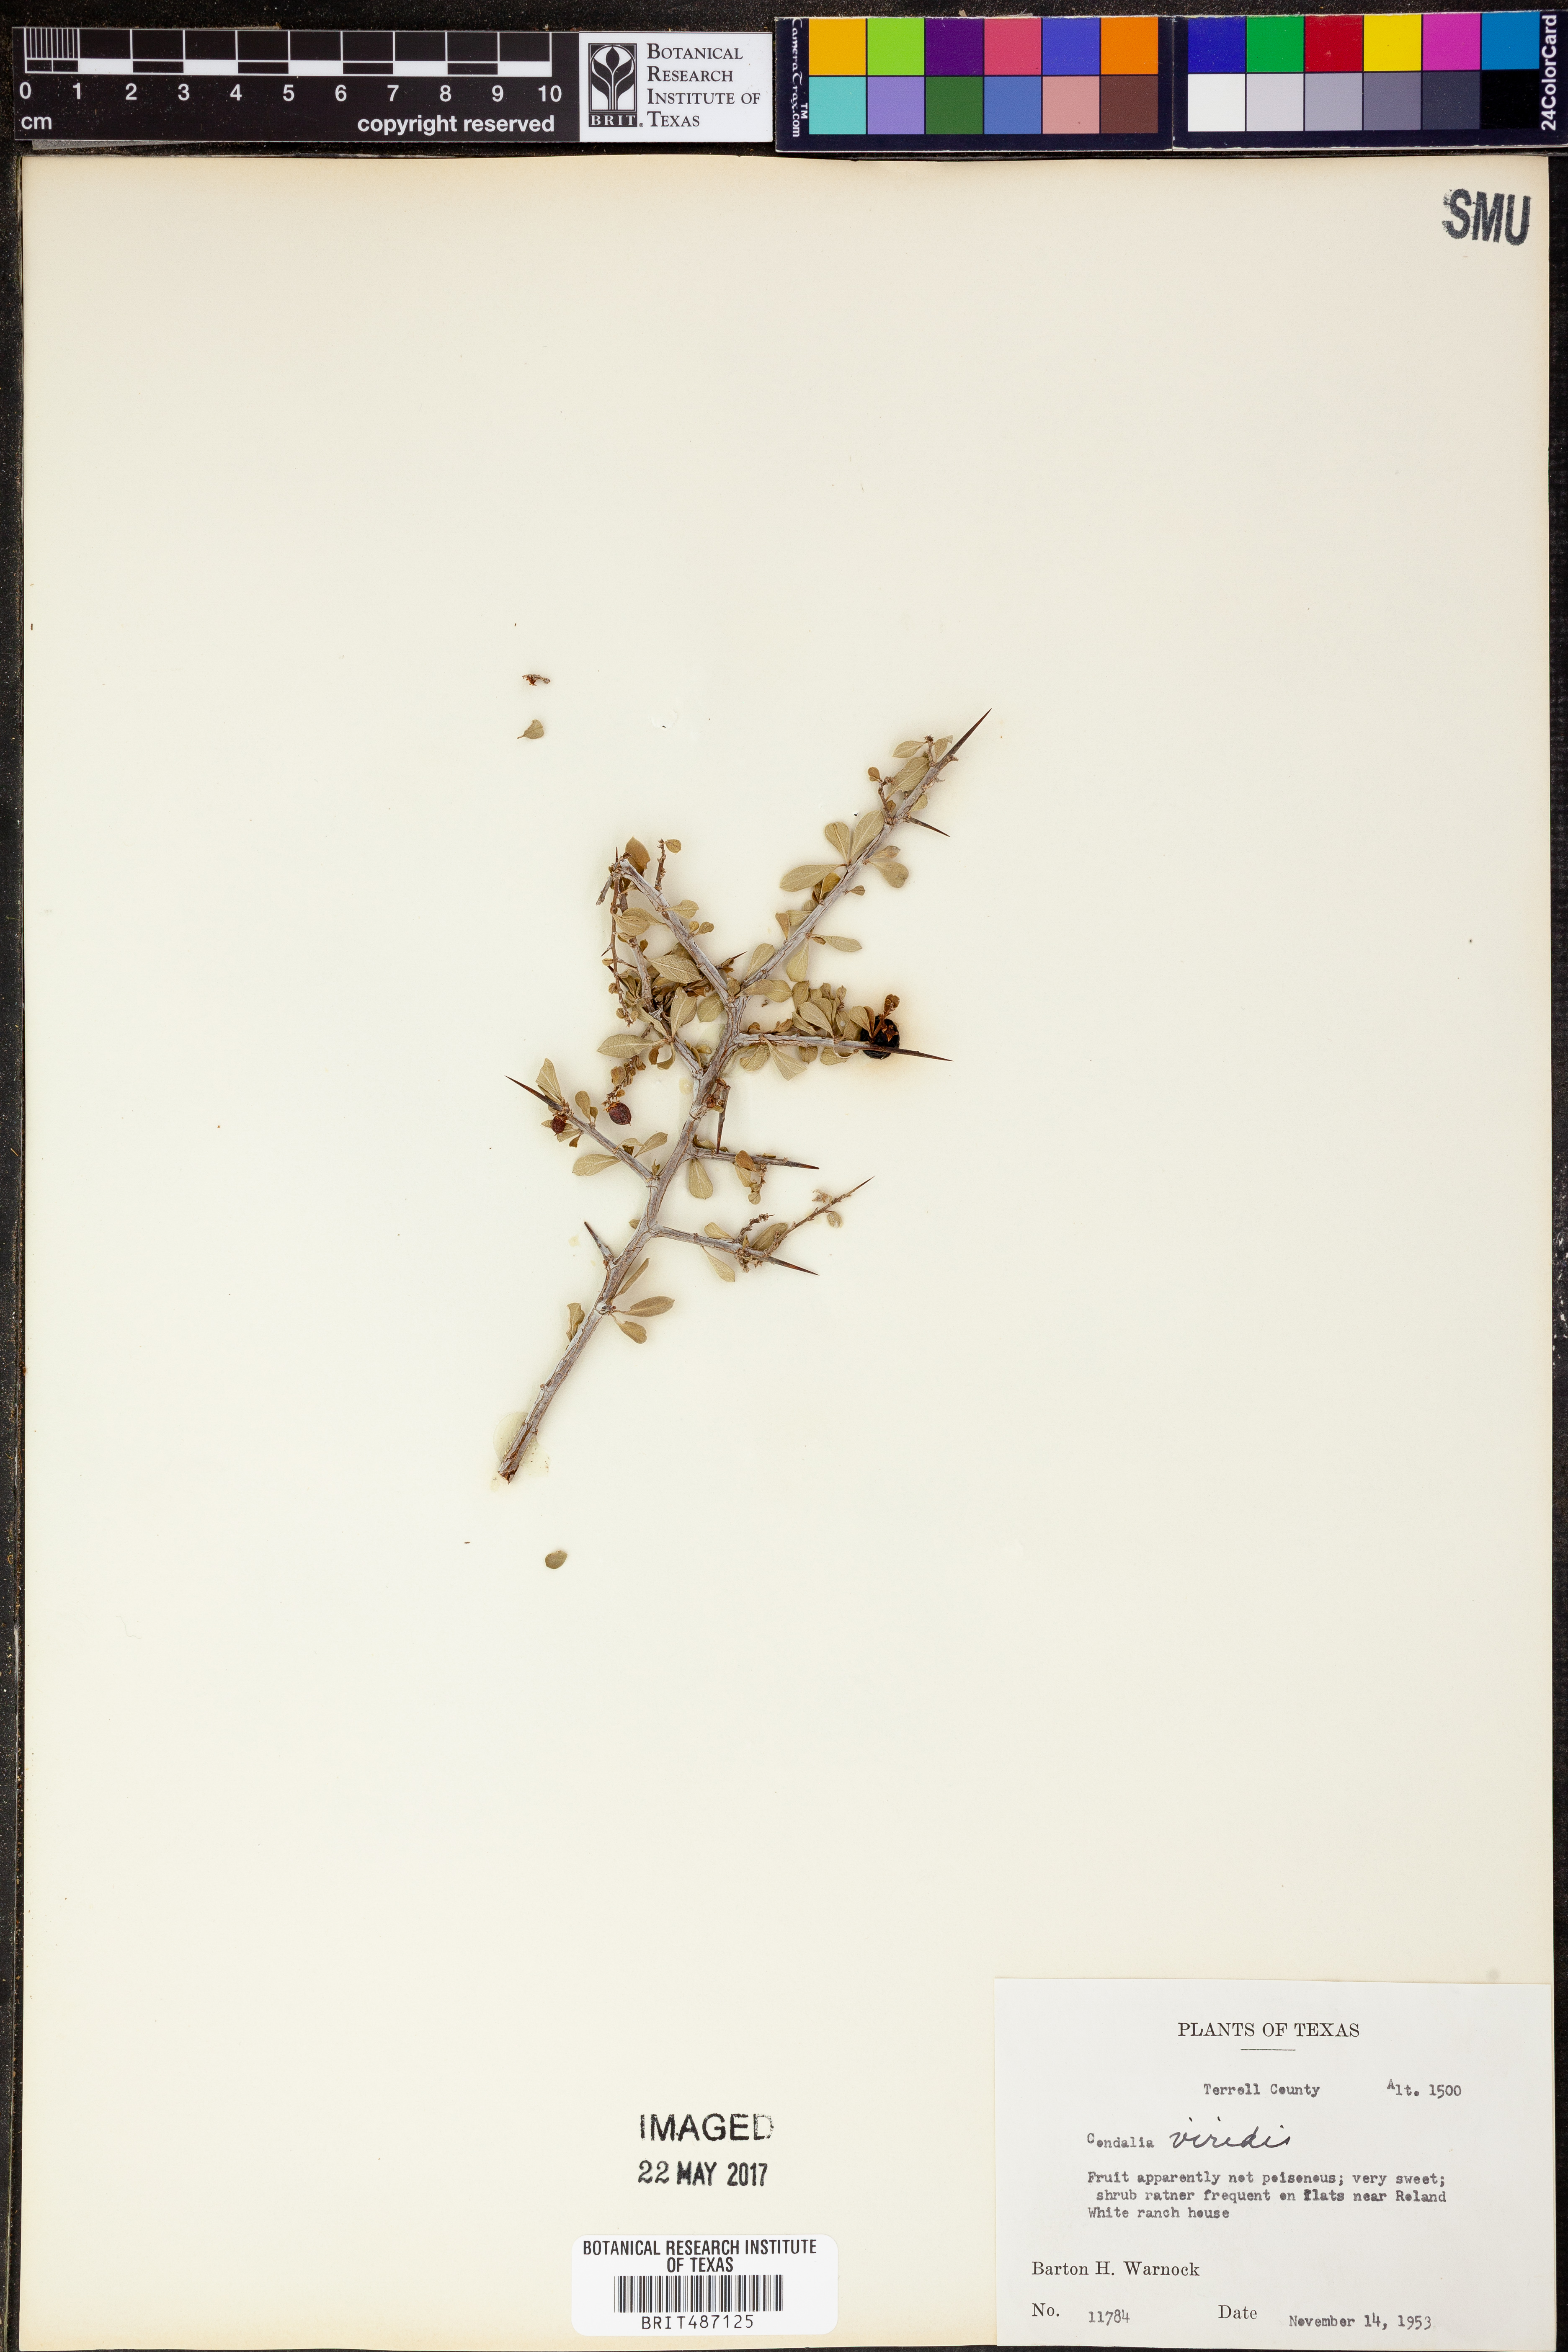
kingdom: Plantae
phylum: Tracheophyta
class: Magnoliopsida
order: Rosales
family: Rhamnaceae
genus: Condalia
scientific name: Condalia viridis
